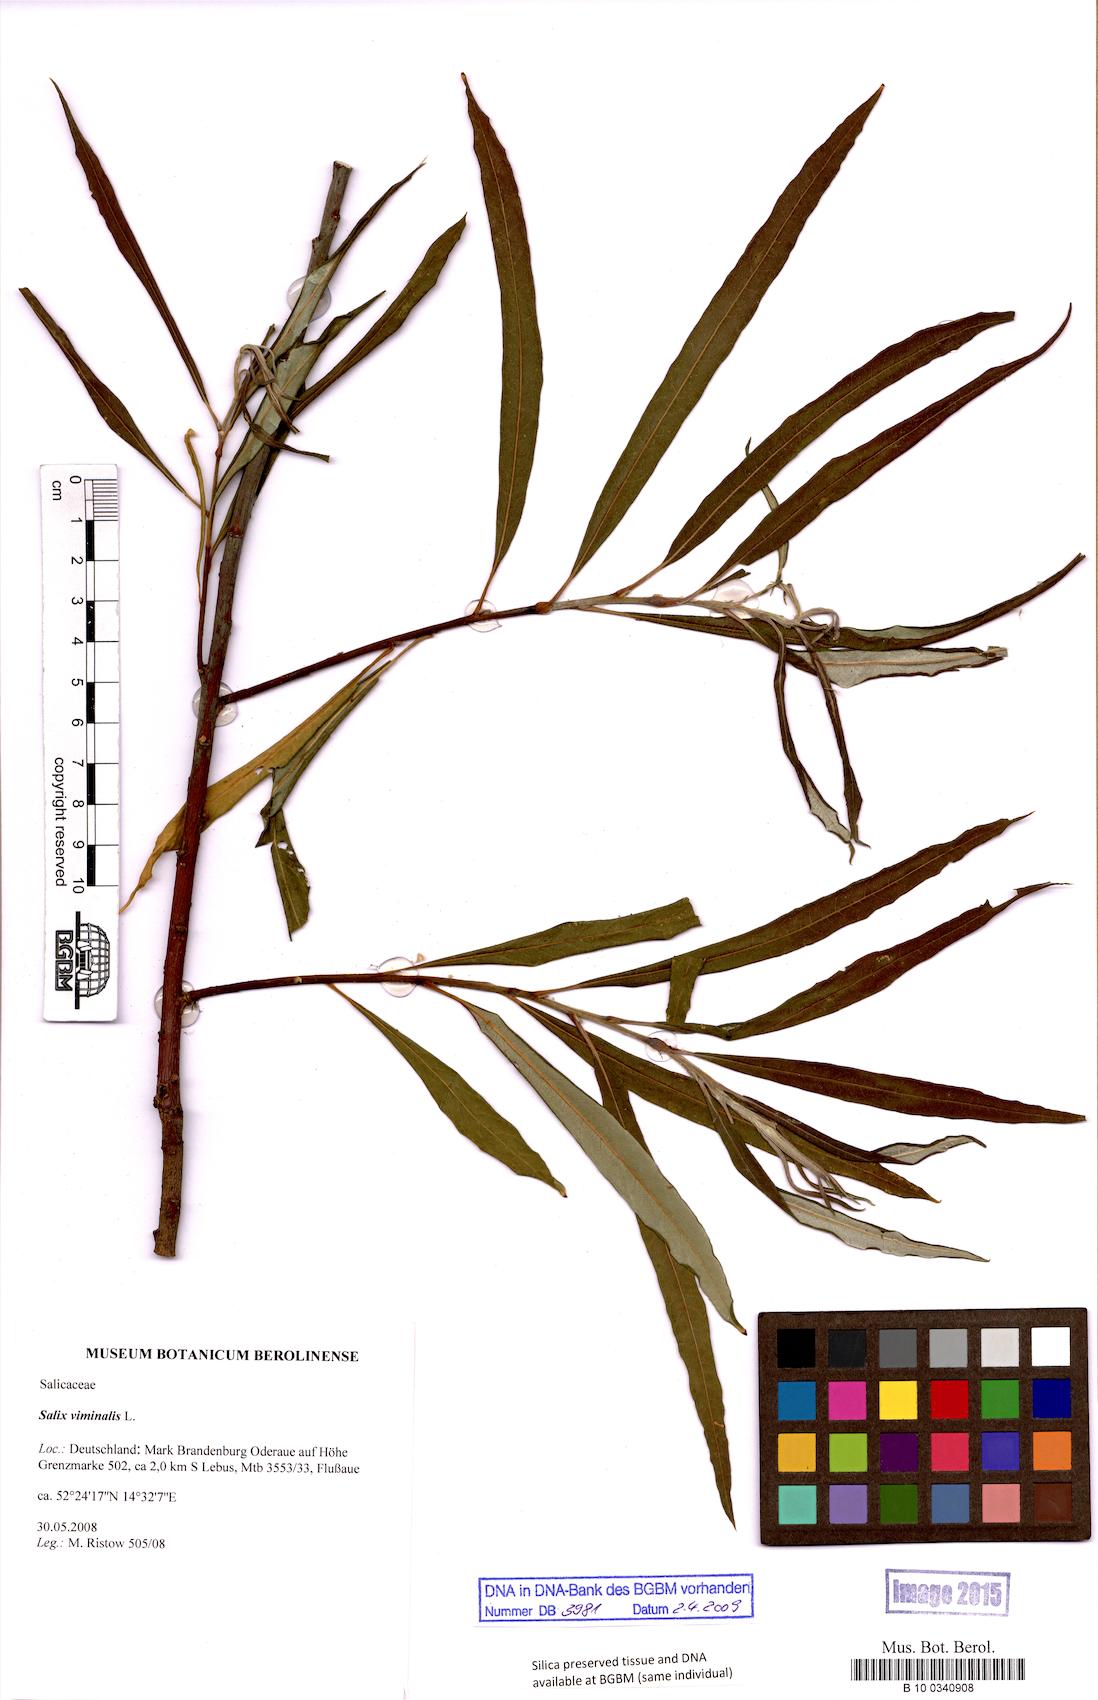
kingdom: Plantae
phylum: Tracheophyta
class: Magnoliopsida
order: Malpighiales
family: Salicaceae
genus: Salix
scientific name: Salix viminalis
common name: Osier
